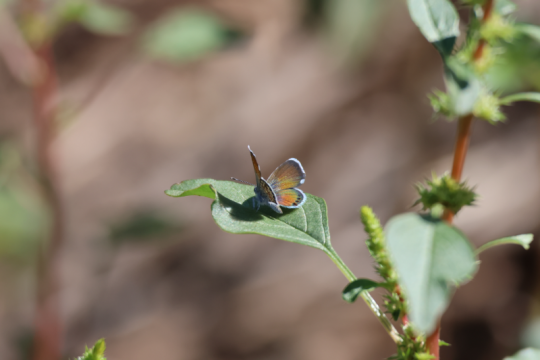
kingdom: Animalia
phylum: Arthropoda
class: Insecta
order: Lepidoptera
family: Lycaenidae
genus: Brephidium
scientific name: Brephidium exilis
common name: Western Pygmy-Blue
